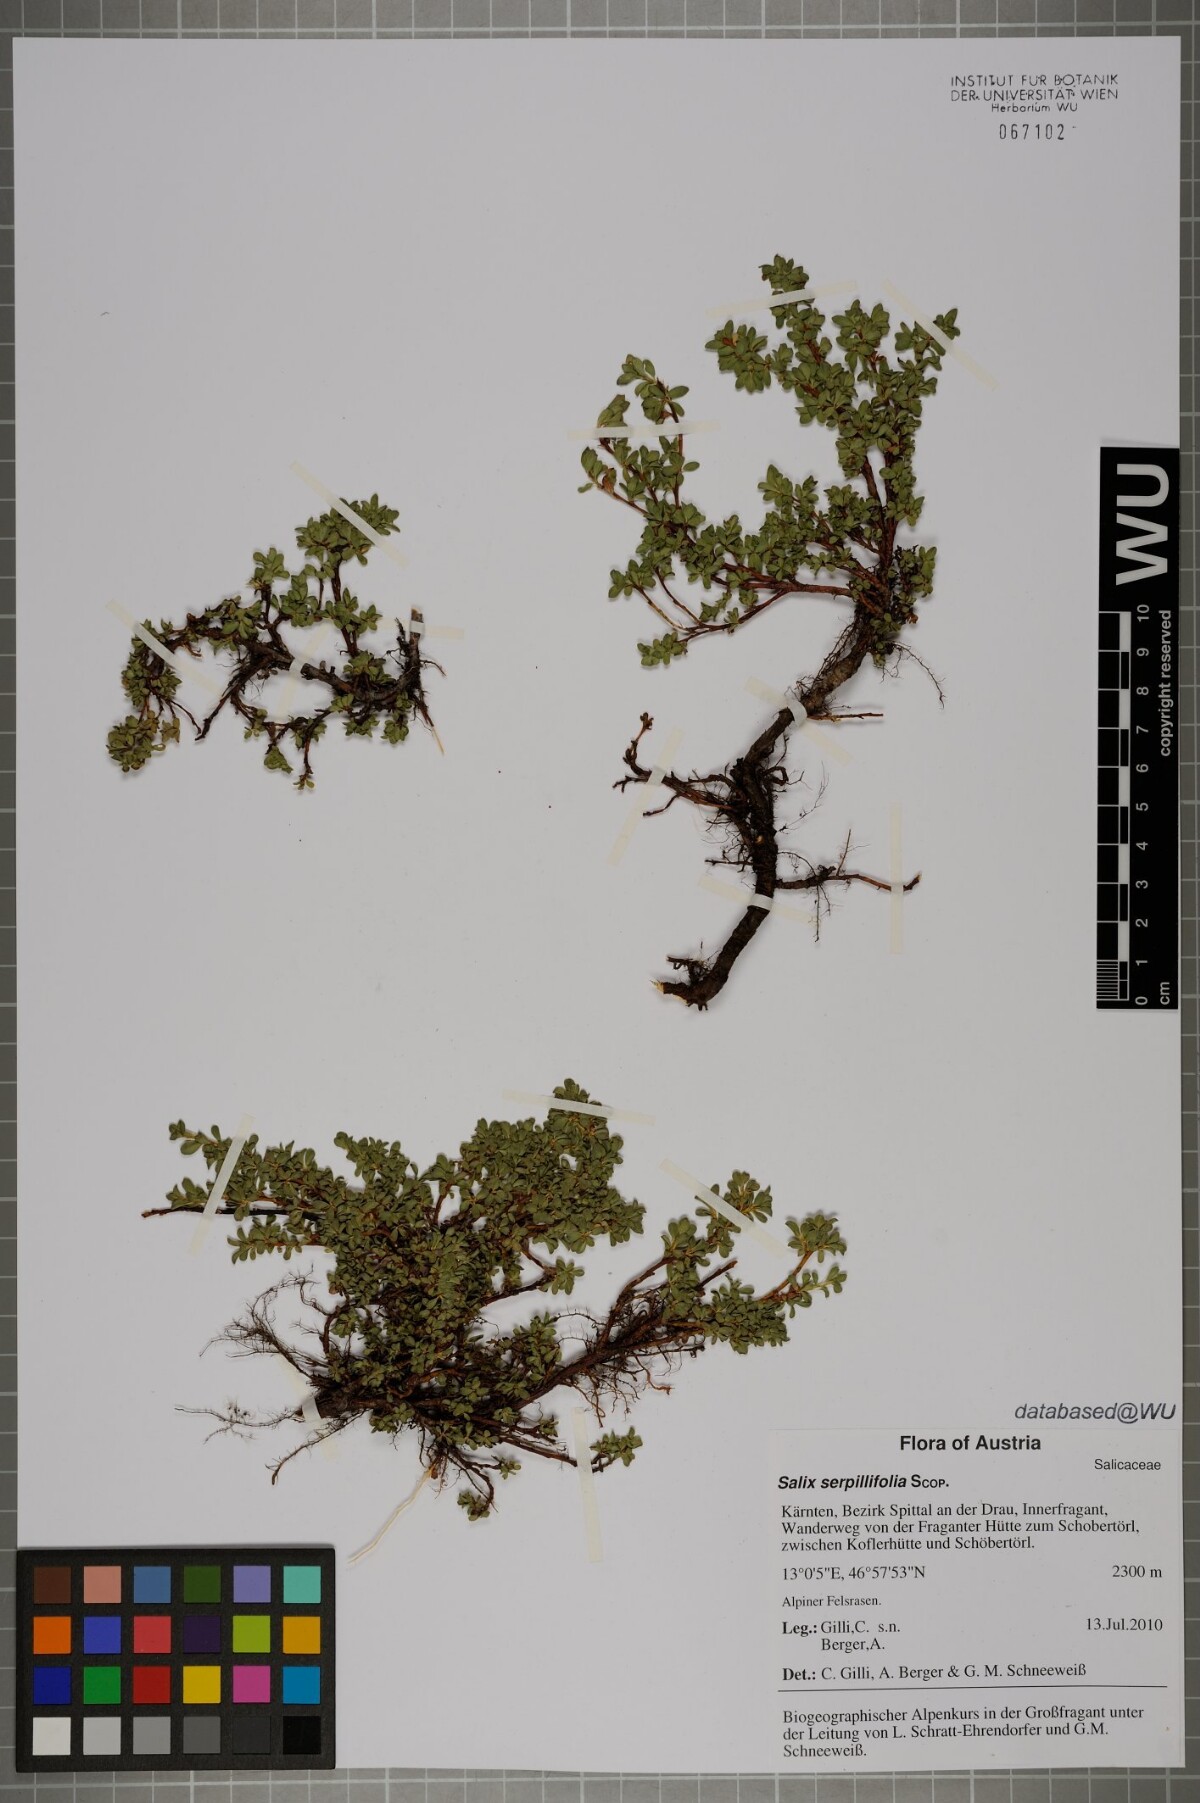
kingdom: Plantae
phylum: Tracheophyta
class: Magnoliopsida
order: Malpighiales
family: Salicaceae
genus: Salix
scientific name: Salix serpillifolia
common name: Thyme-leaf willow
